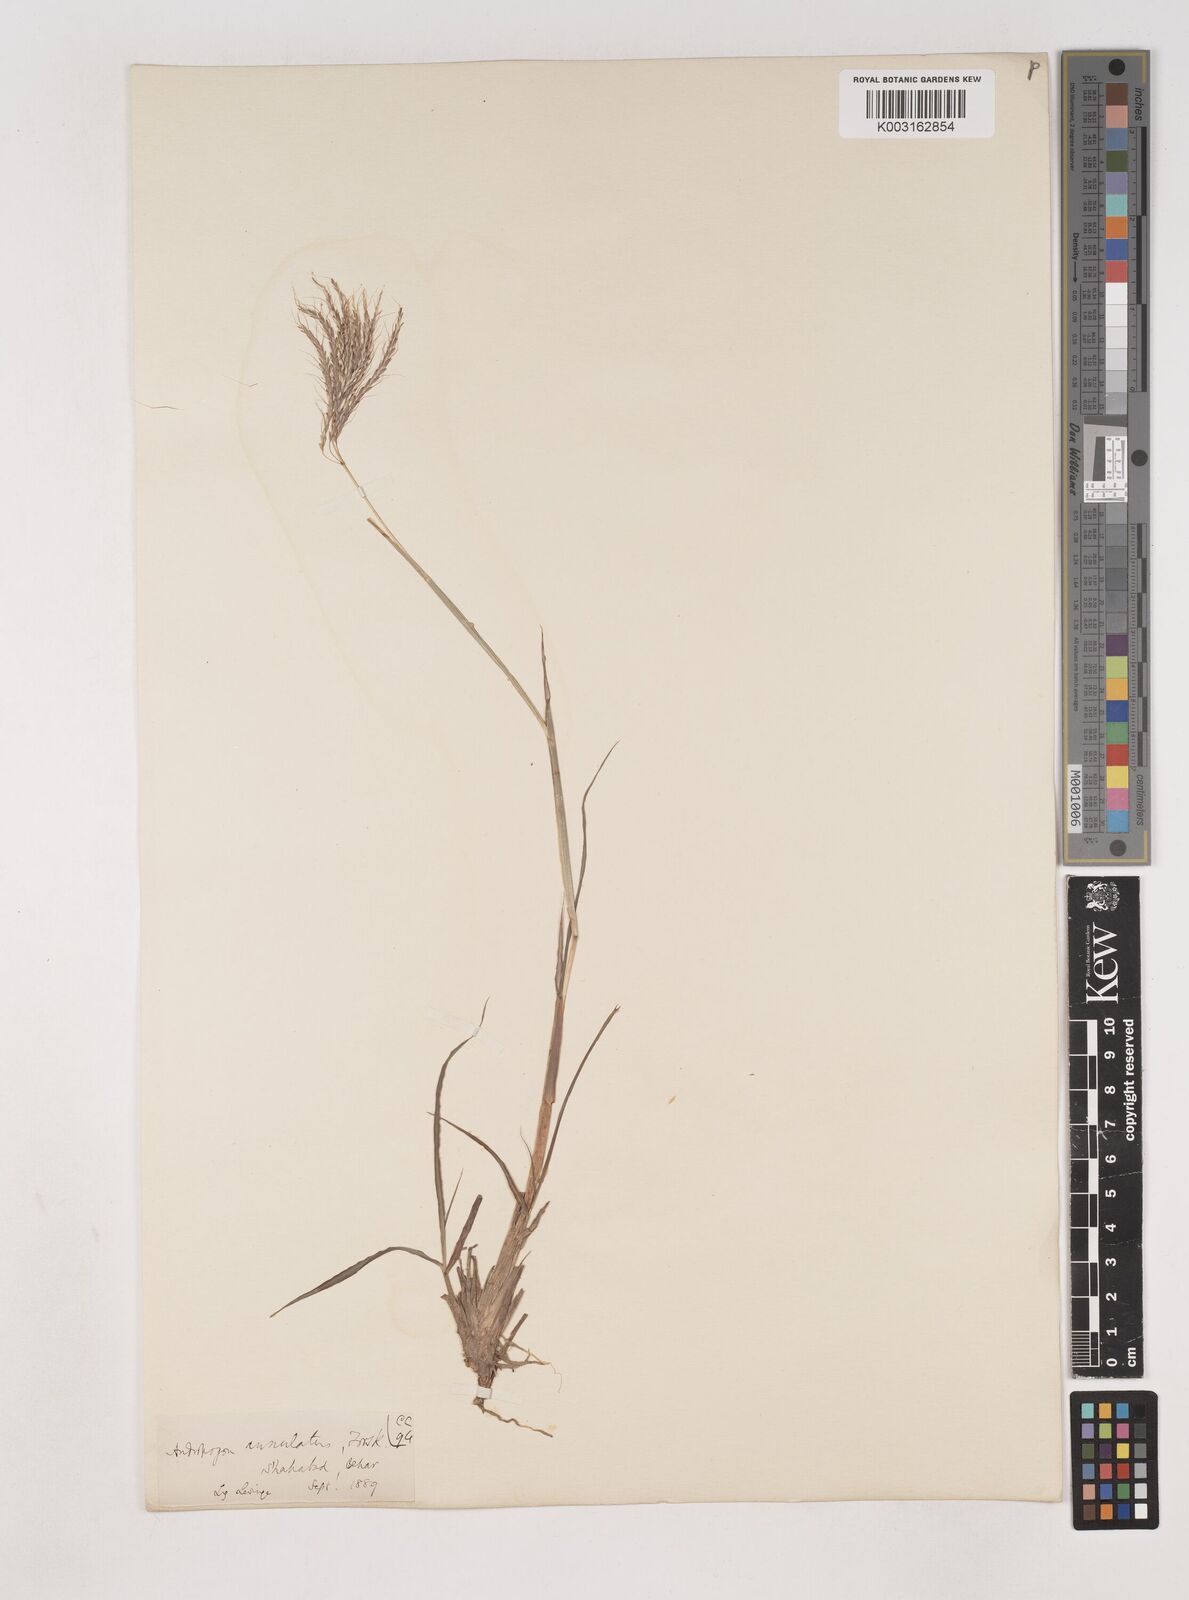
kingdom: Plantae
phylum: Tracheophyta
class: Liliopsida
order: Poales
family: Poaceae
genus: Dichanthium
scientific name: Dichanthium annulatum
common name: Kleberg's bluestem
